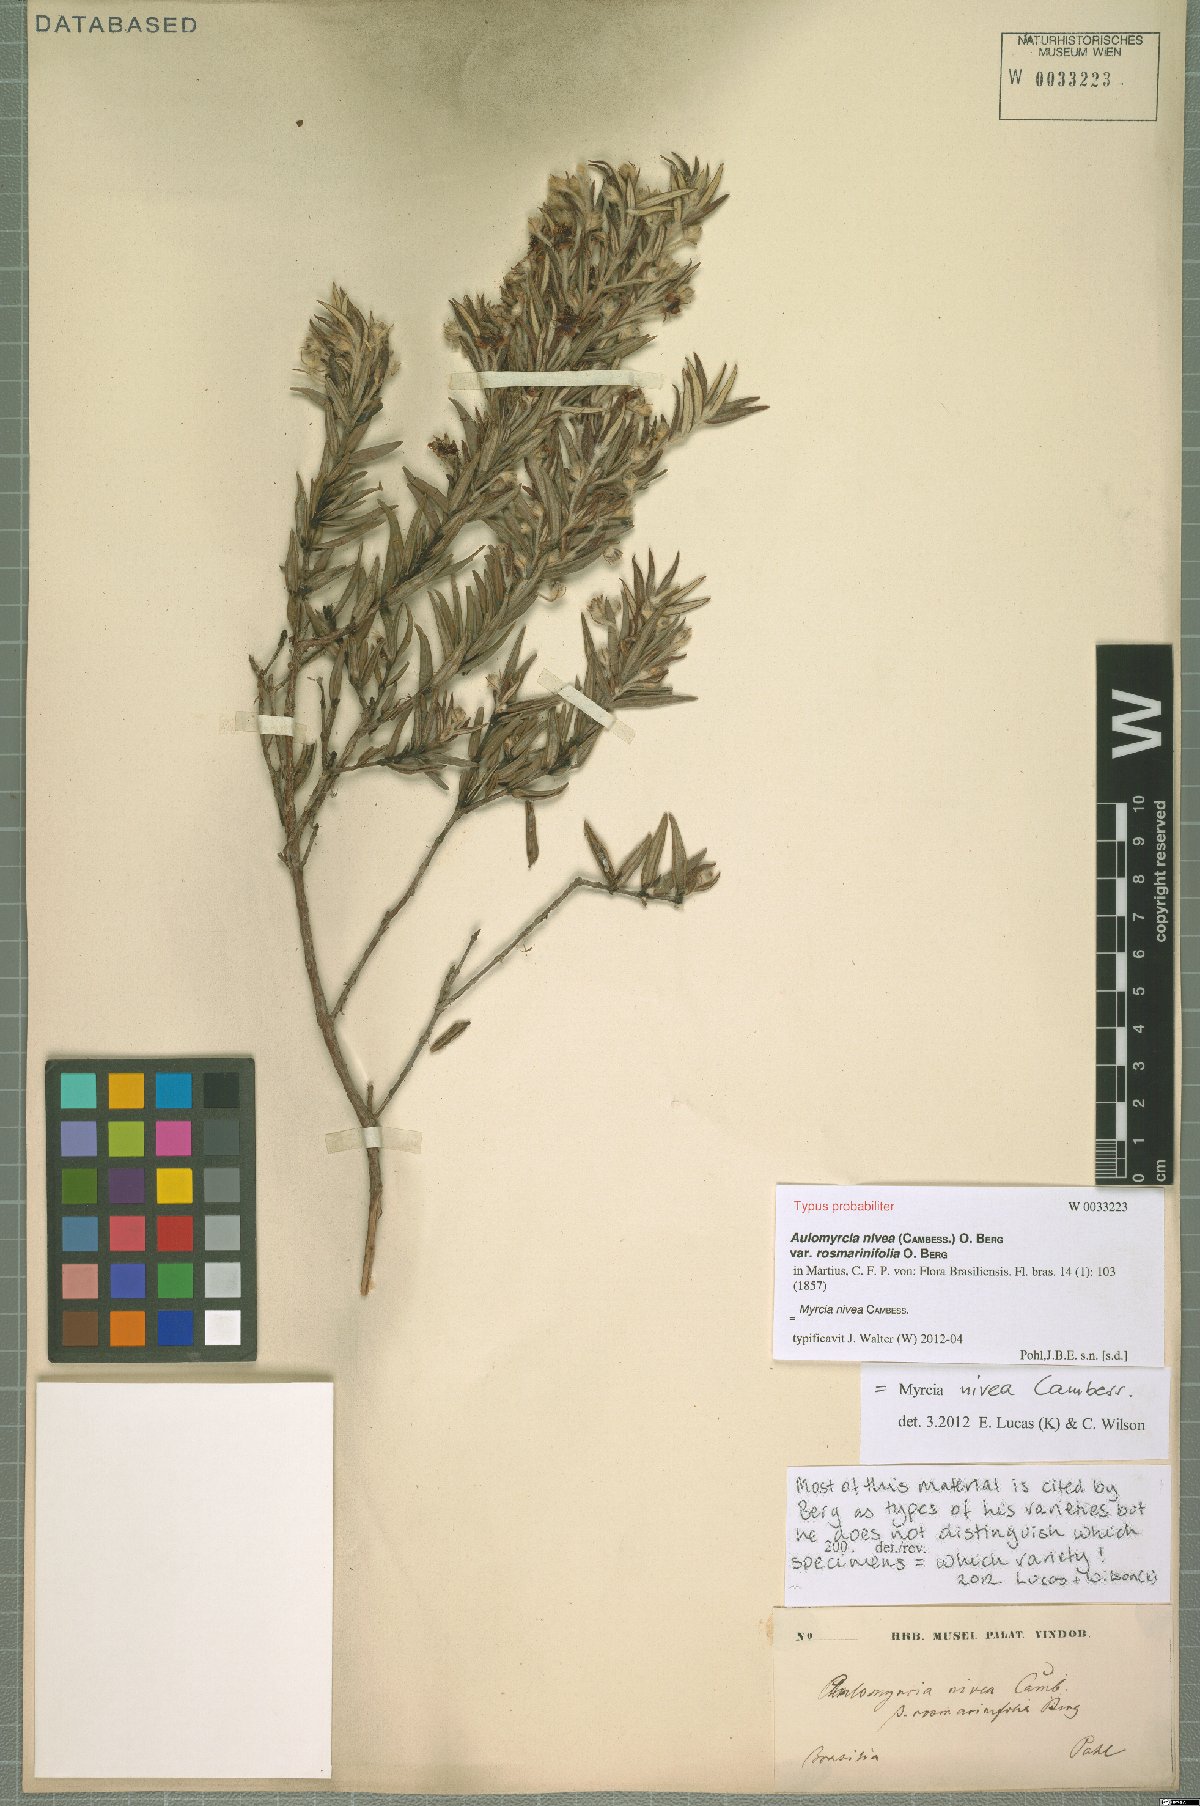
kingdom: Plantae
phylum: Tracheophyta
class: Magnoliopsida
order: Myrtales
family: Myrtaceae
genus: Myrcia
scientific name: Myrcia nivea
